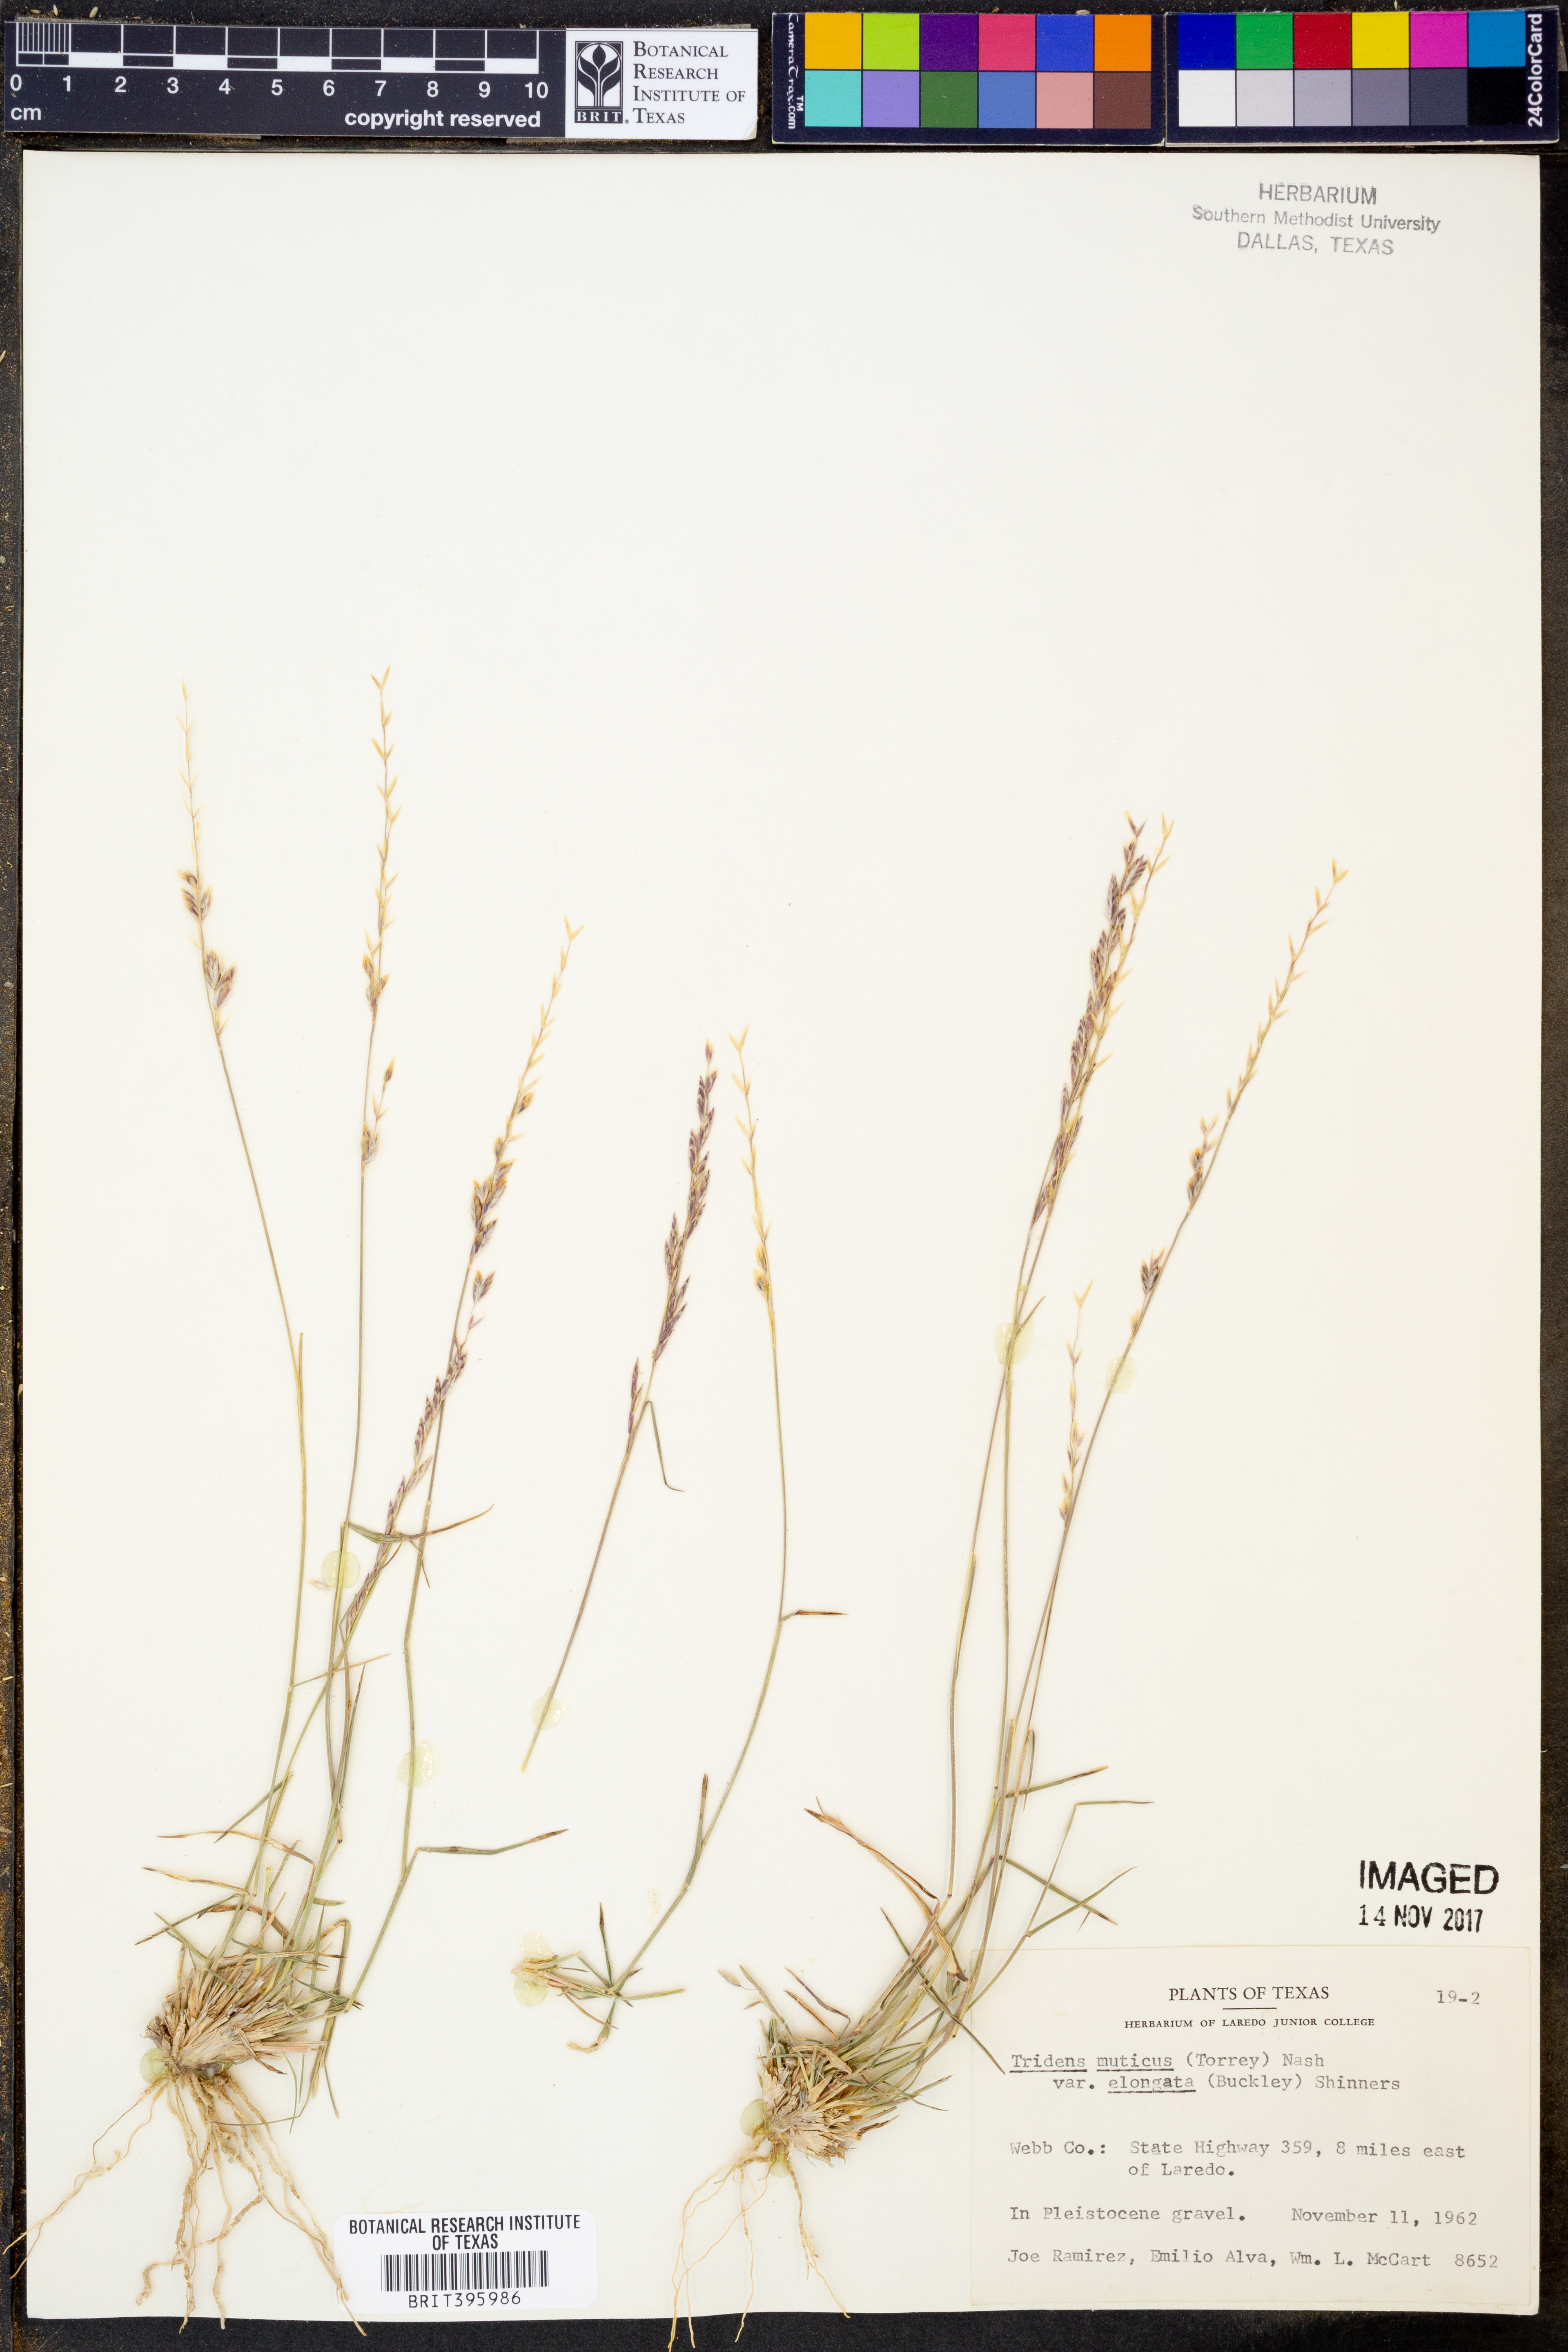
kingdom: Plantae
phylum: Tracheophyta
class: Liliopsida
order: Poales
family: Poaceae
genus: Tridentopsis
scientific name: Tridentopsis mutica
